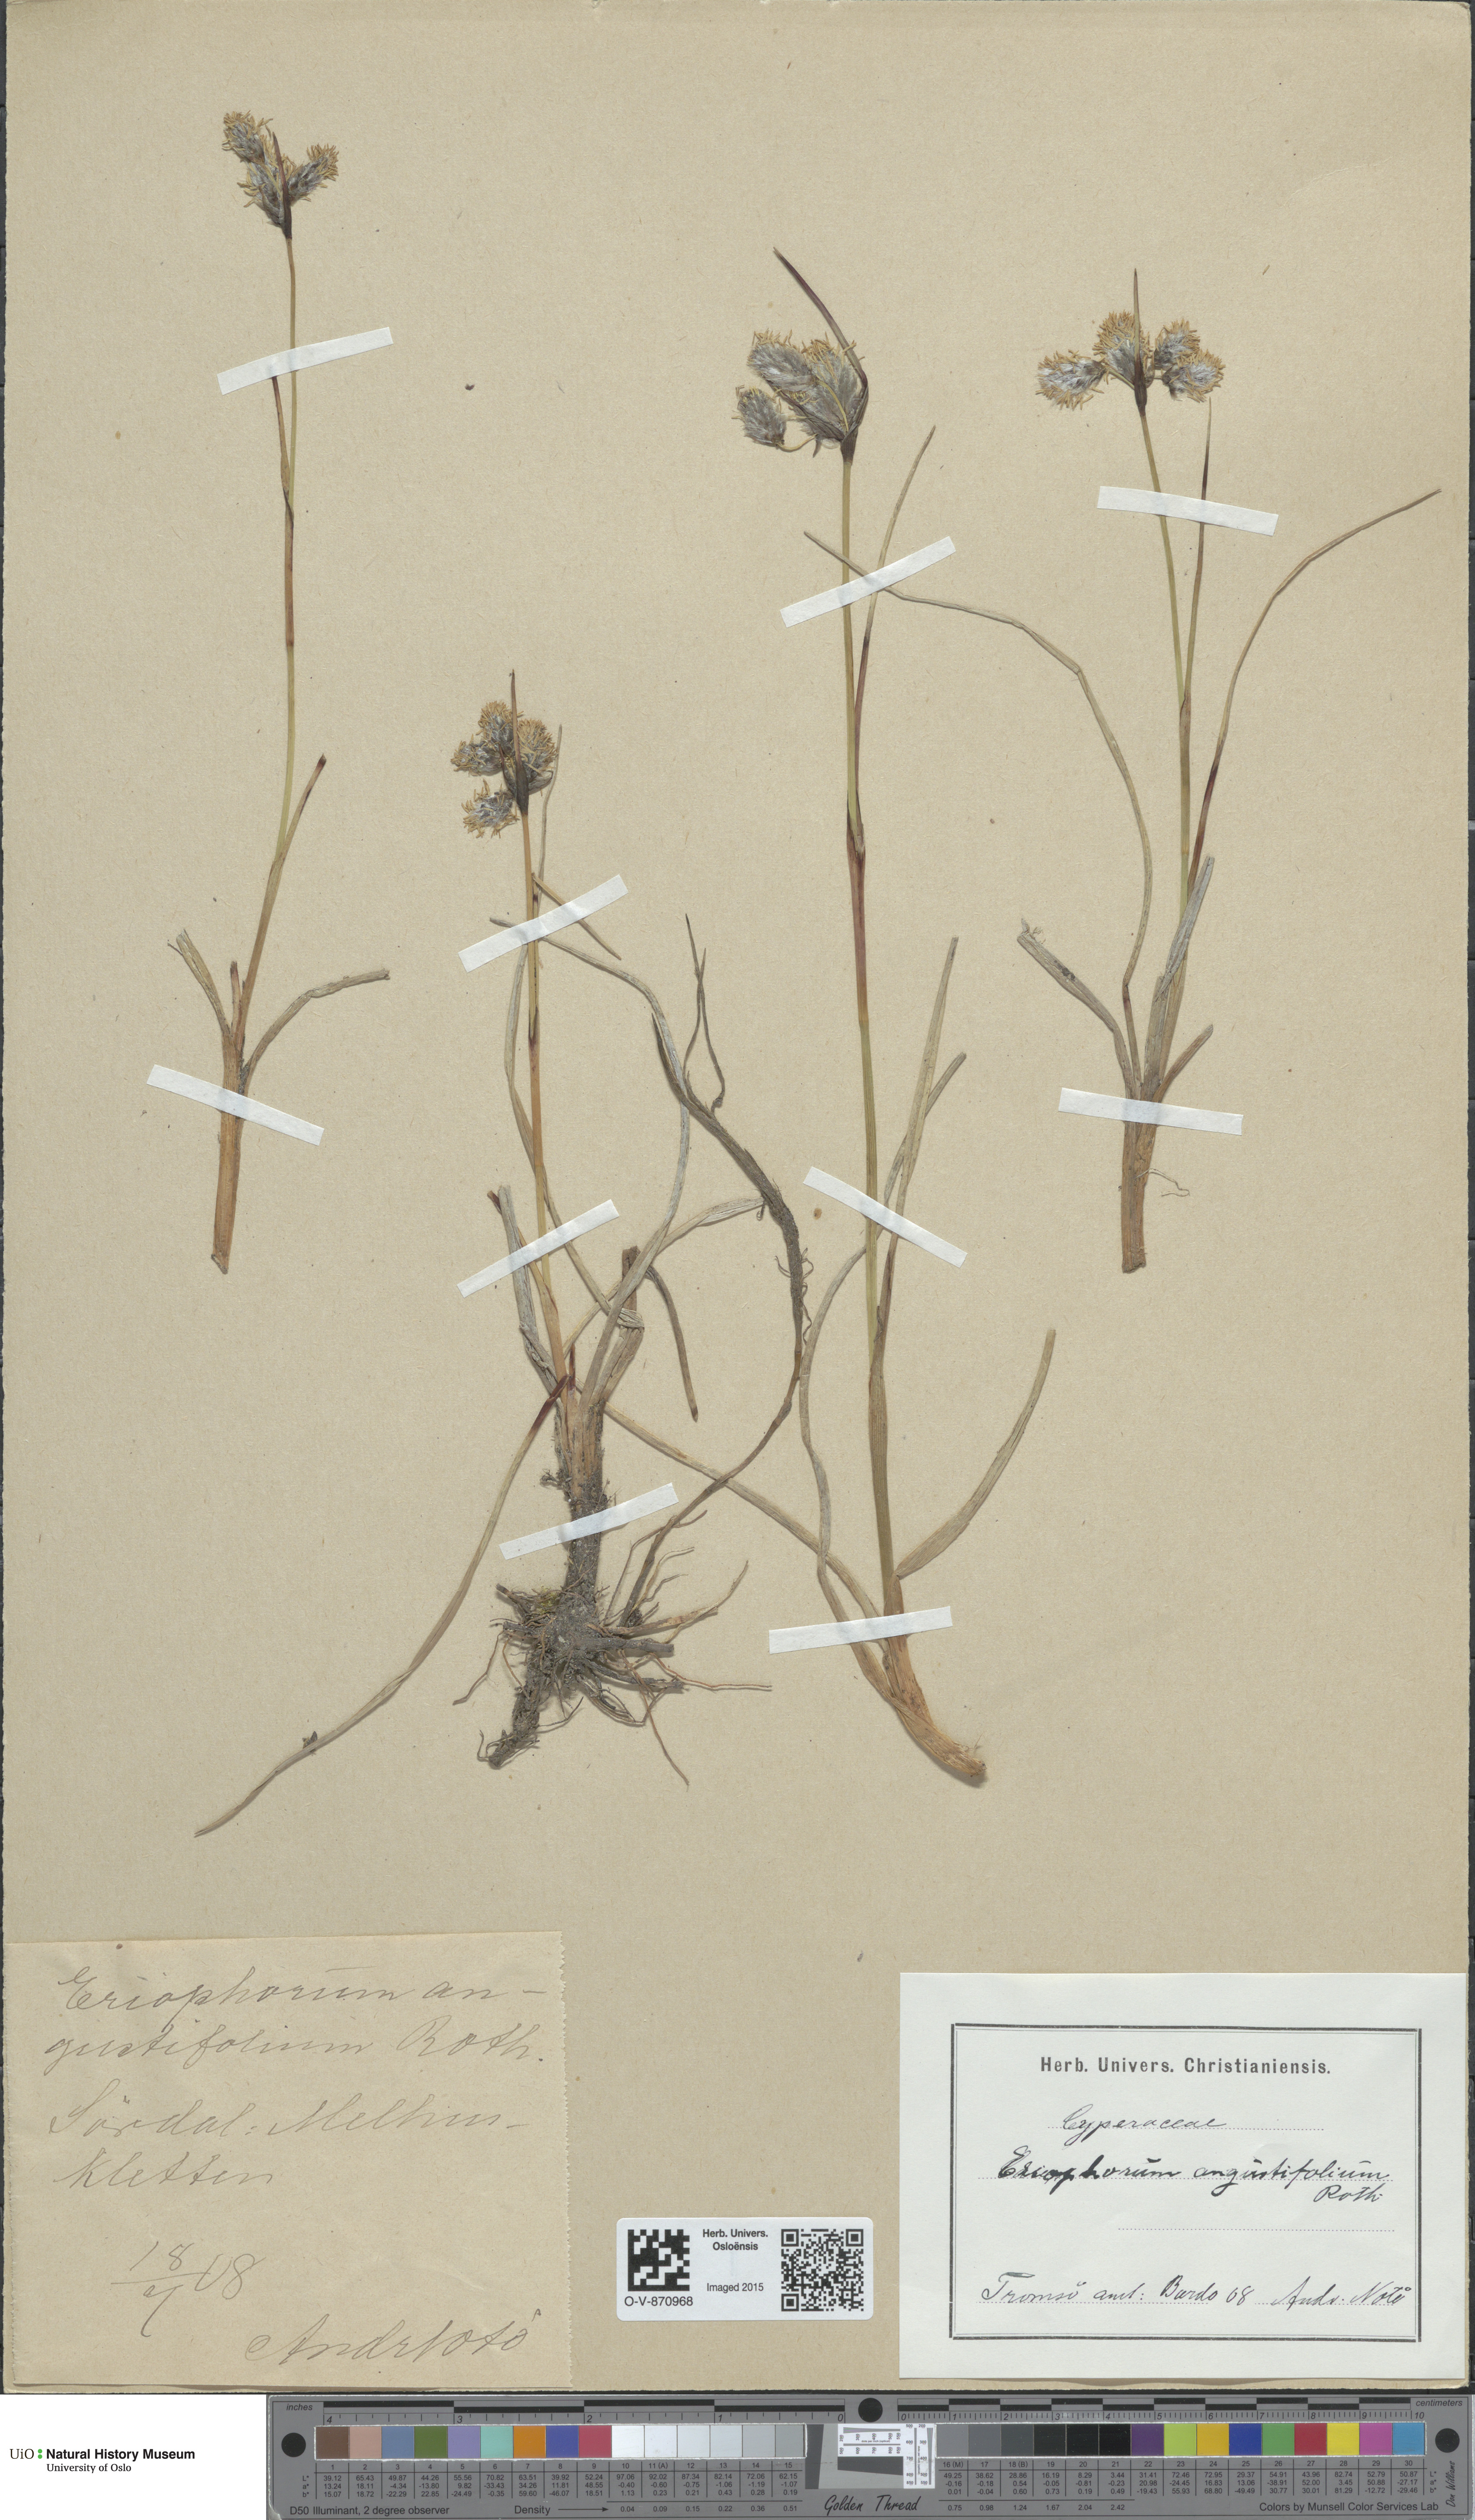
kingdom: Plantae
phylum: Tracheophyta
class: Liliopsida
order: Poales
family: Cyperaceae
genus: Eriophorum
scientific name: Eriophorum angustifolium
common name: Common cottongrass
